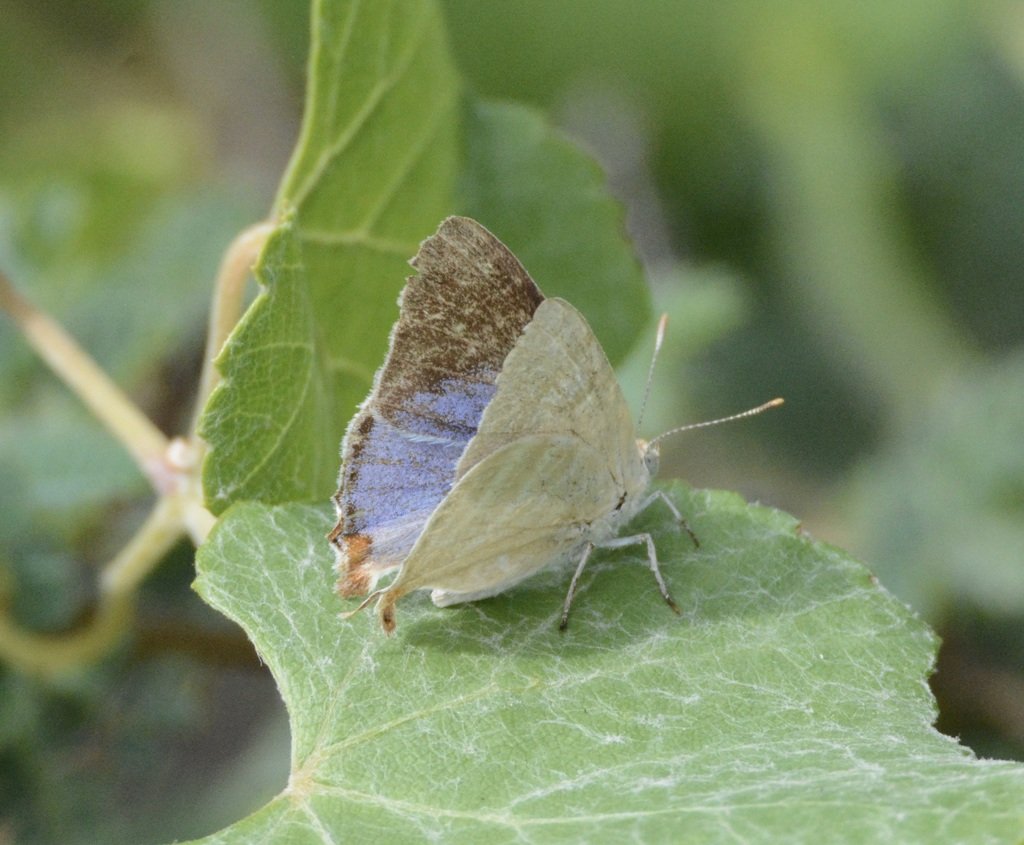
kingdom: Animalia
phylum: Arthropoda
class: Insecta
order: Lepidoptera
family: Lycaenidae
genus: Dolymorpha
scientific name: Dolymorpha jada
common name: Creamy Stripe-Streak
